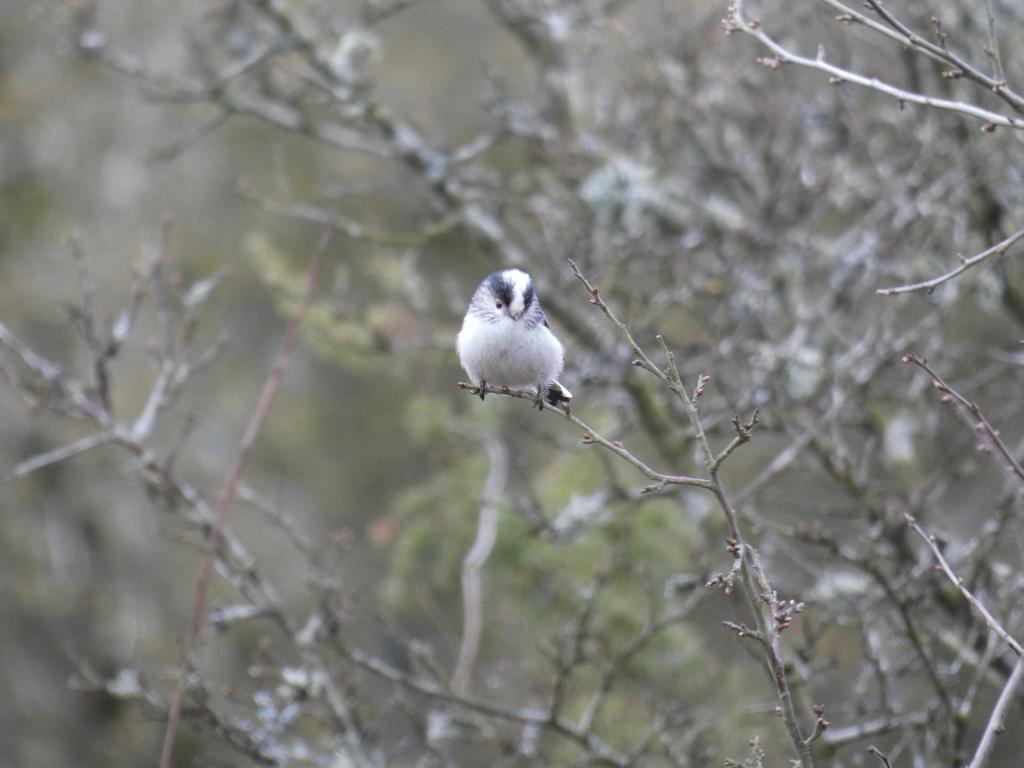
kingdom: Animalia
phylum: Chordata
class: Aves
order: Passeriformes
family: Aegithalidae
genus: Aegithalos
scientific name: Aegithalos caudatus
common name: Halemejse
